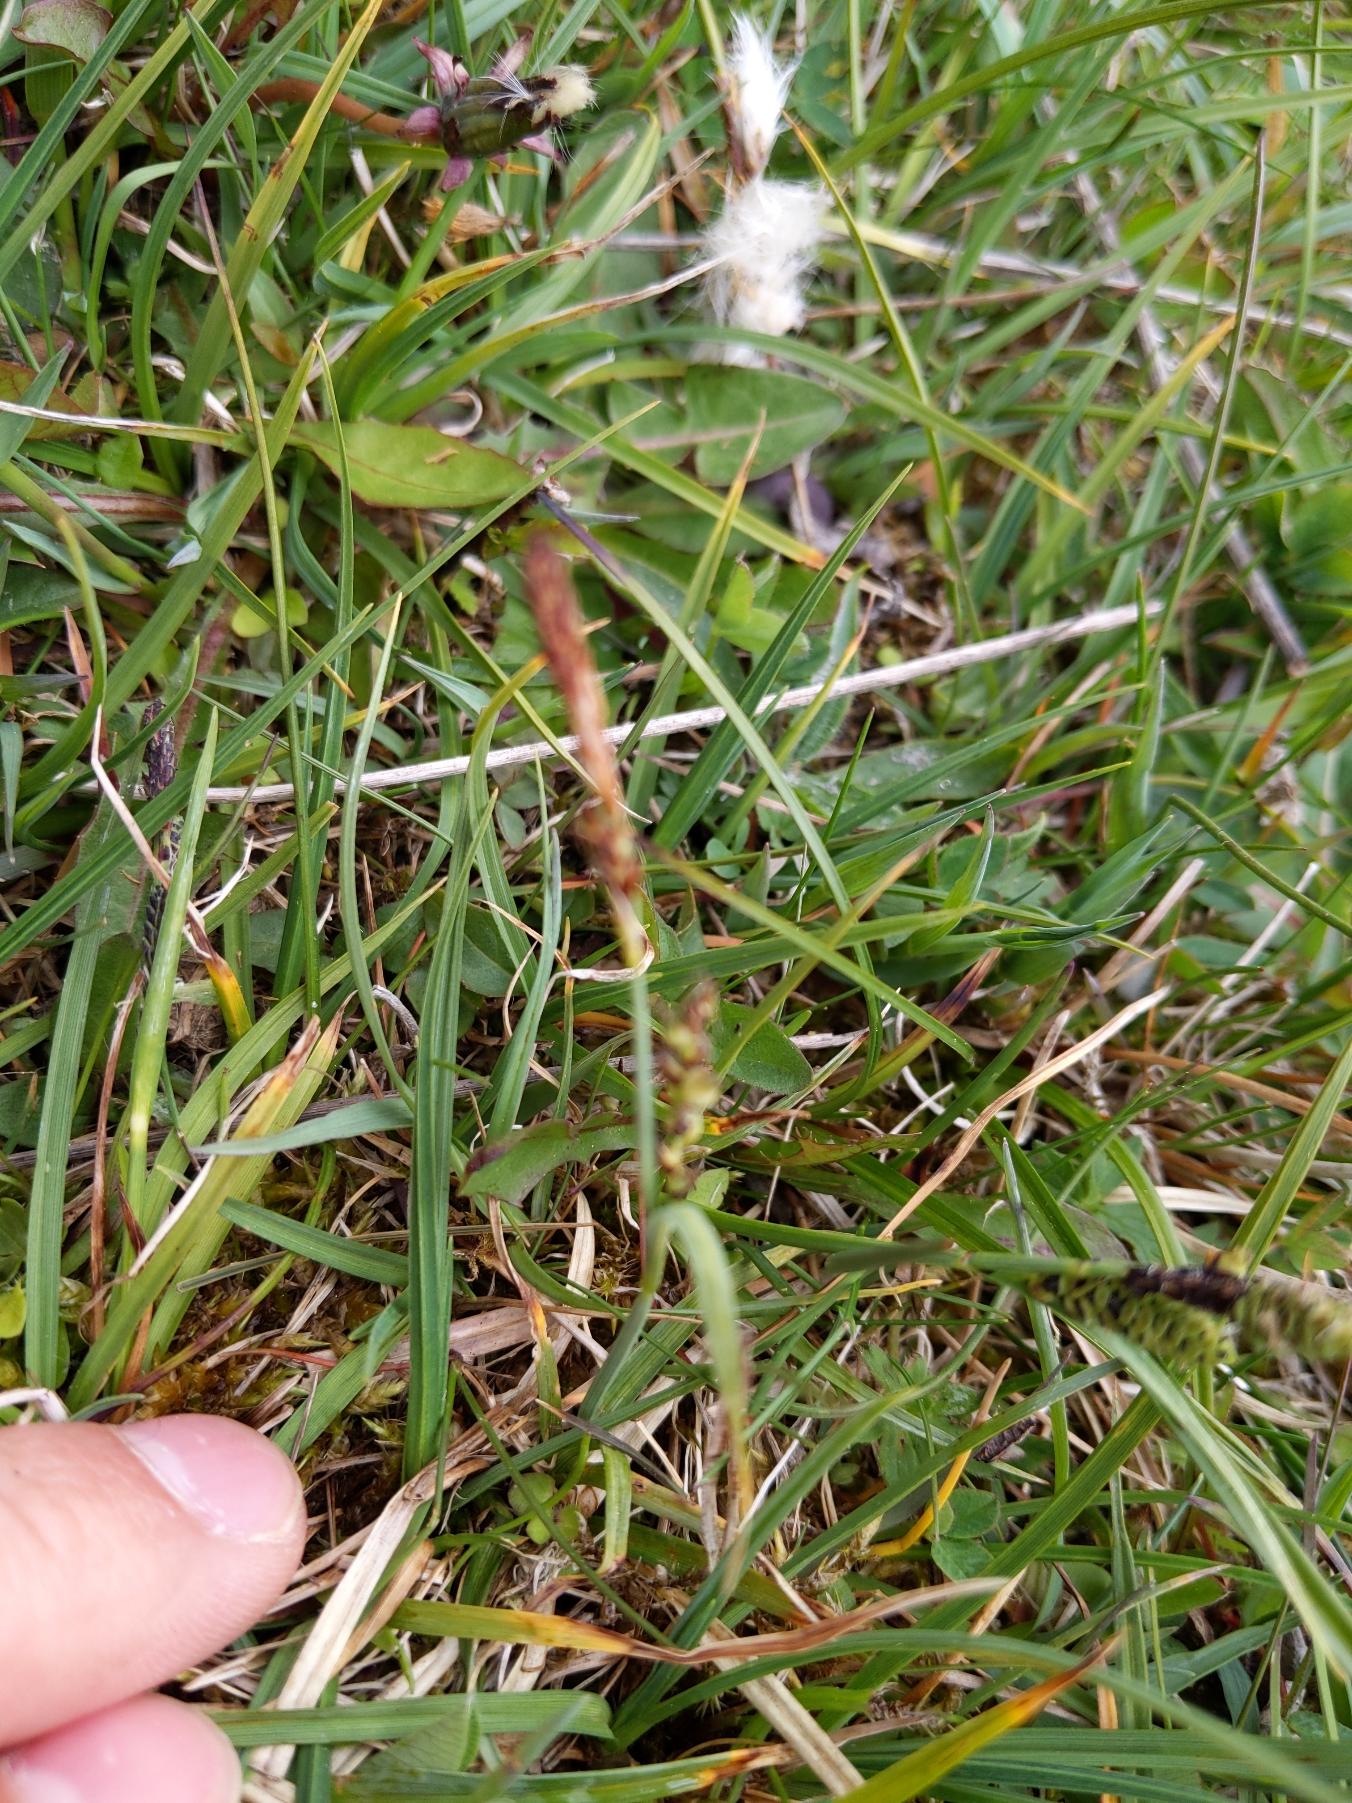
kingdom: Plantae
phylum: Tracheophyta
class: Liliopsida
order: Poales
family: Cyperaceae
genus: Carex
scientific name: Carex panicea
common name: Hirse-star
